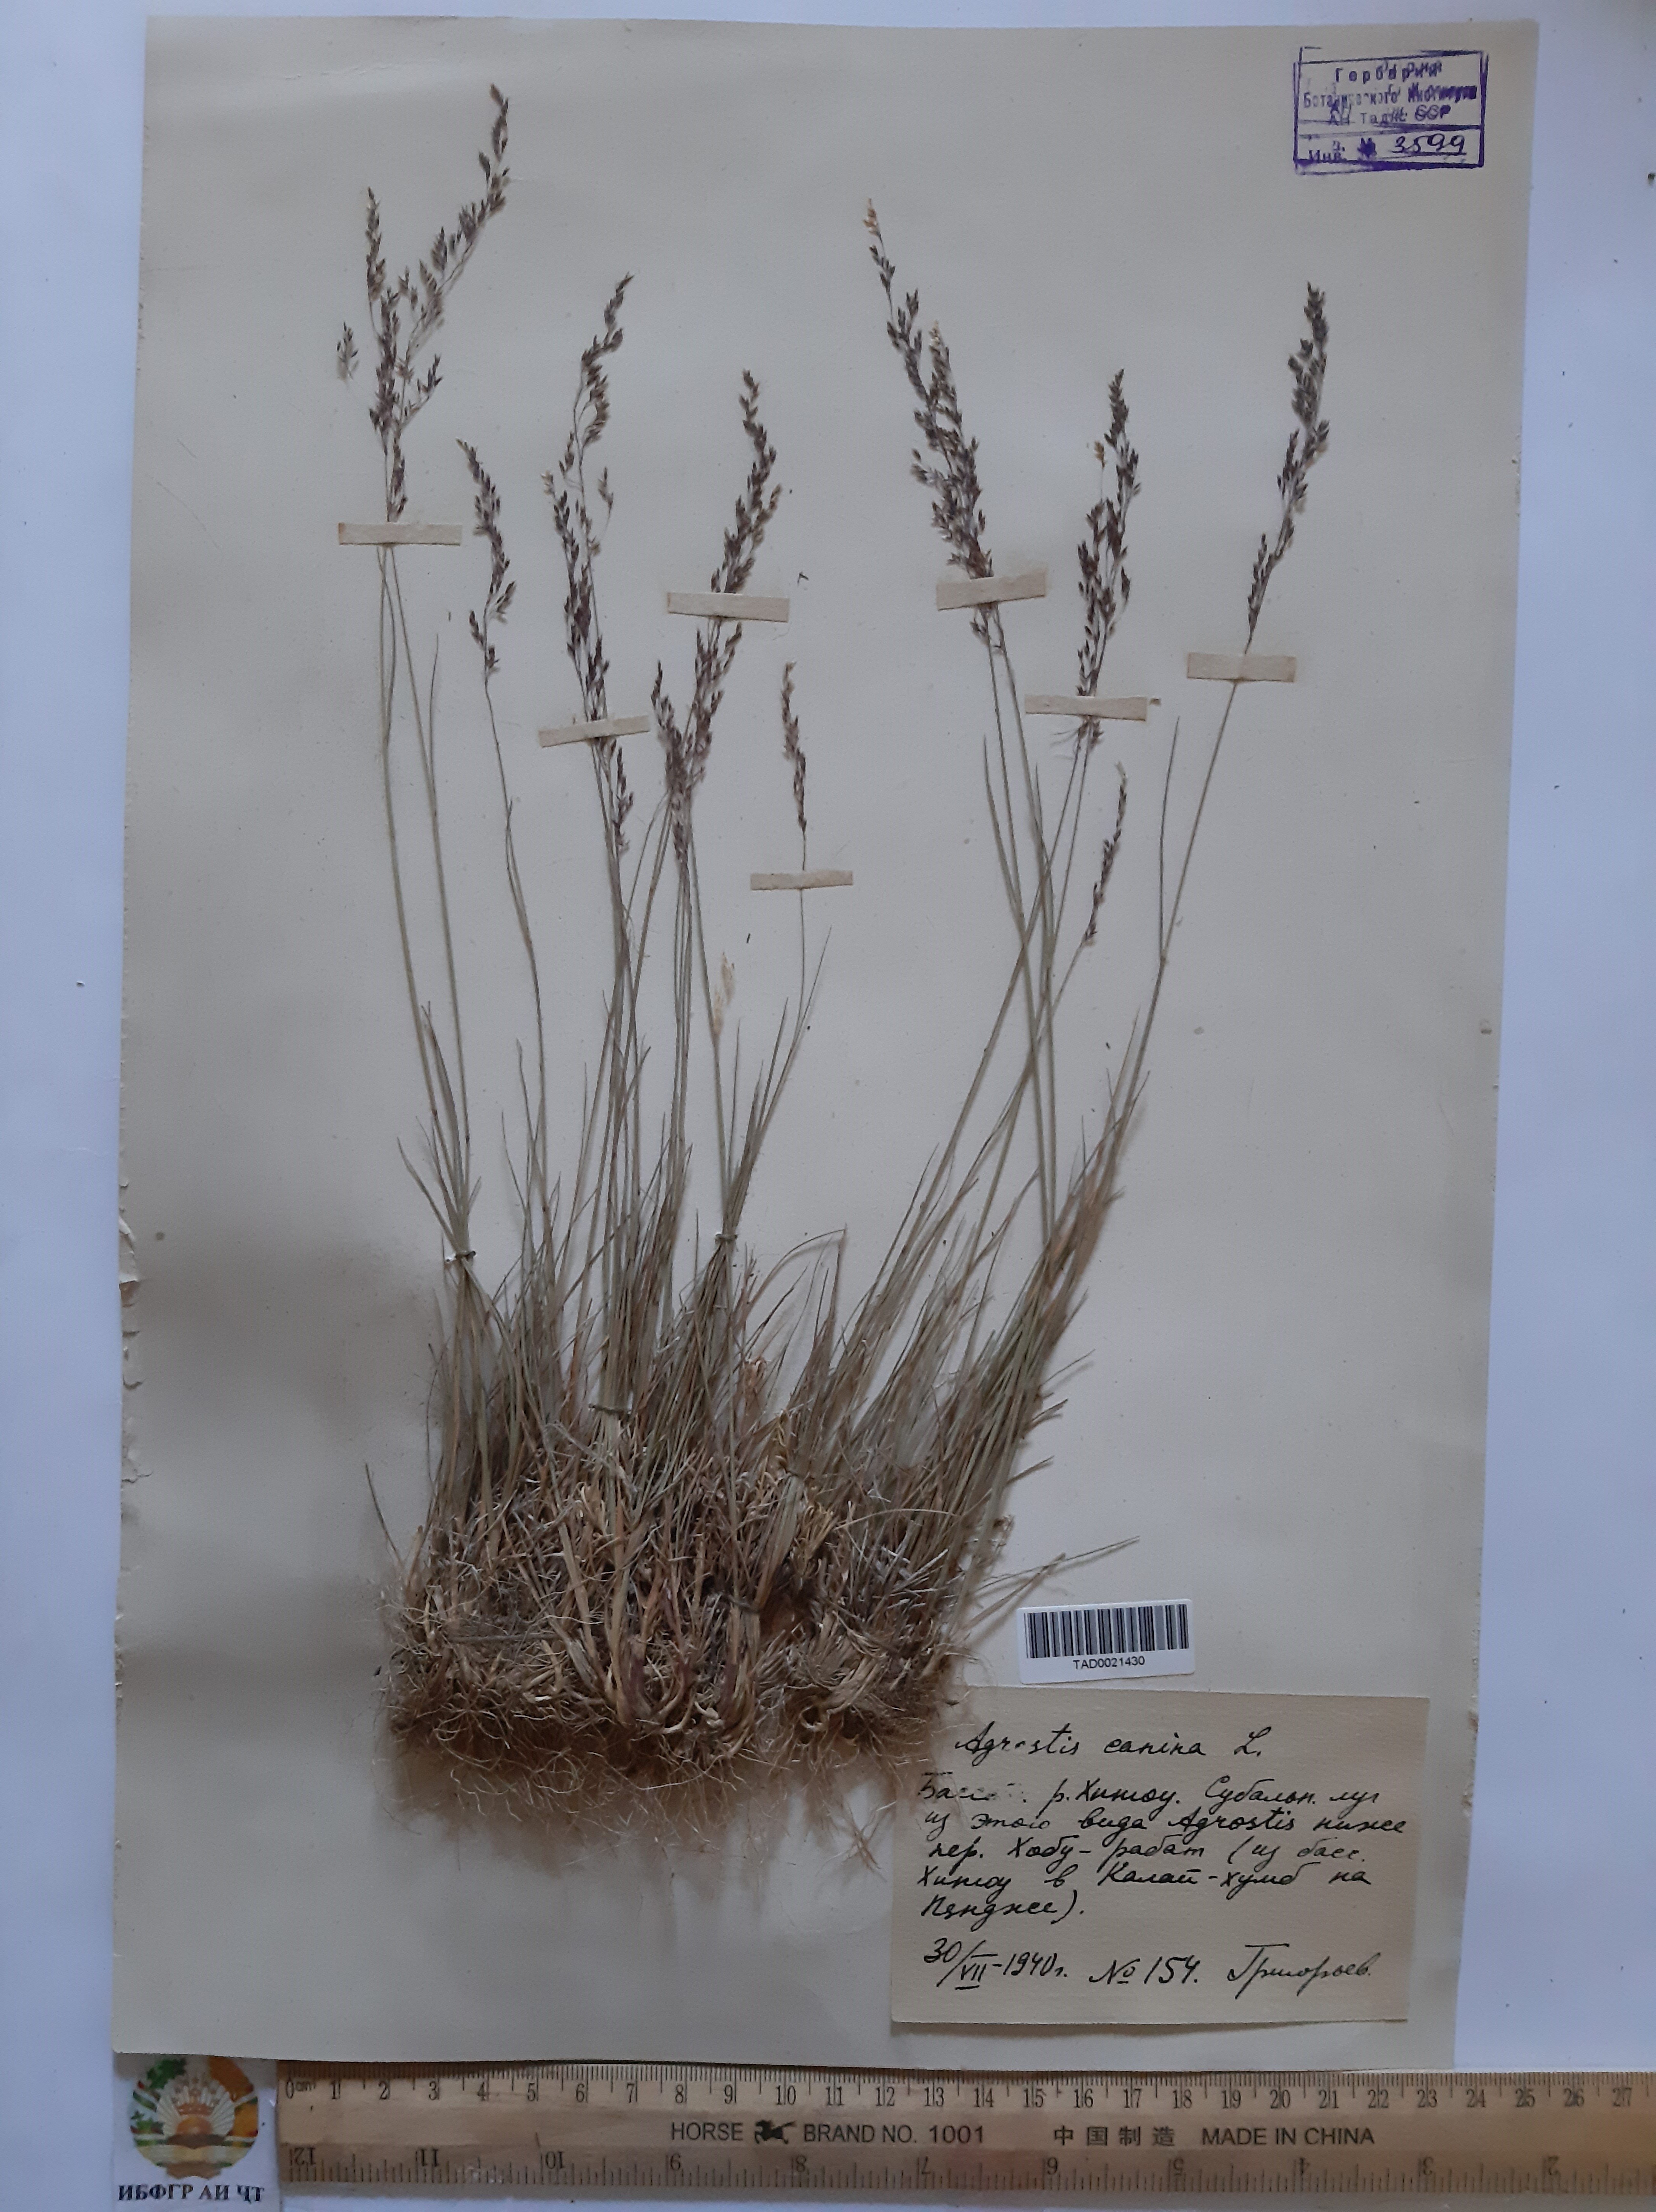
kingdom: Plantae
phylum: Tracheophyta
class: Liliopsida
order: Poales
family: Poaceae
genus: Agrostis
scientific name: Agrostis canina
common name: Velvet bent
